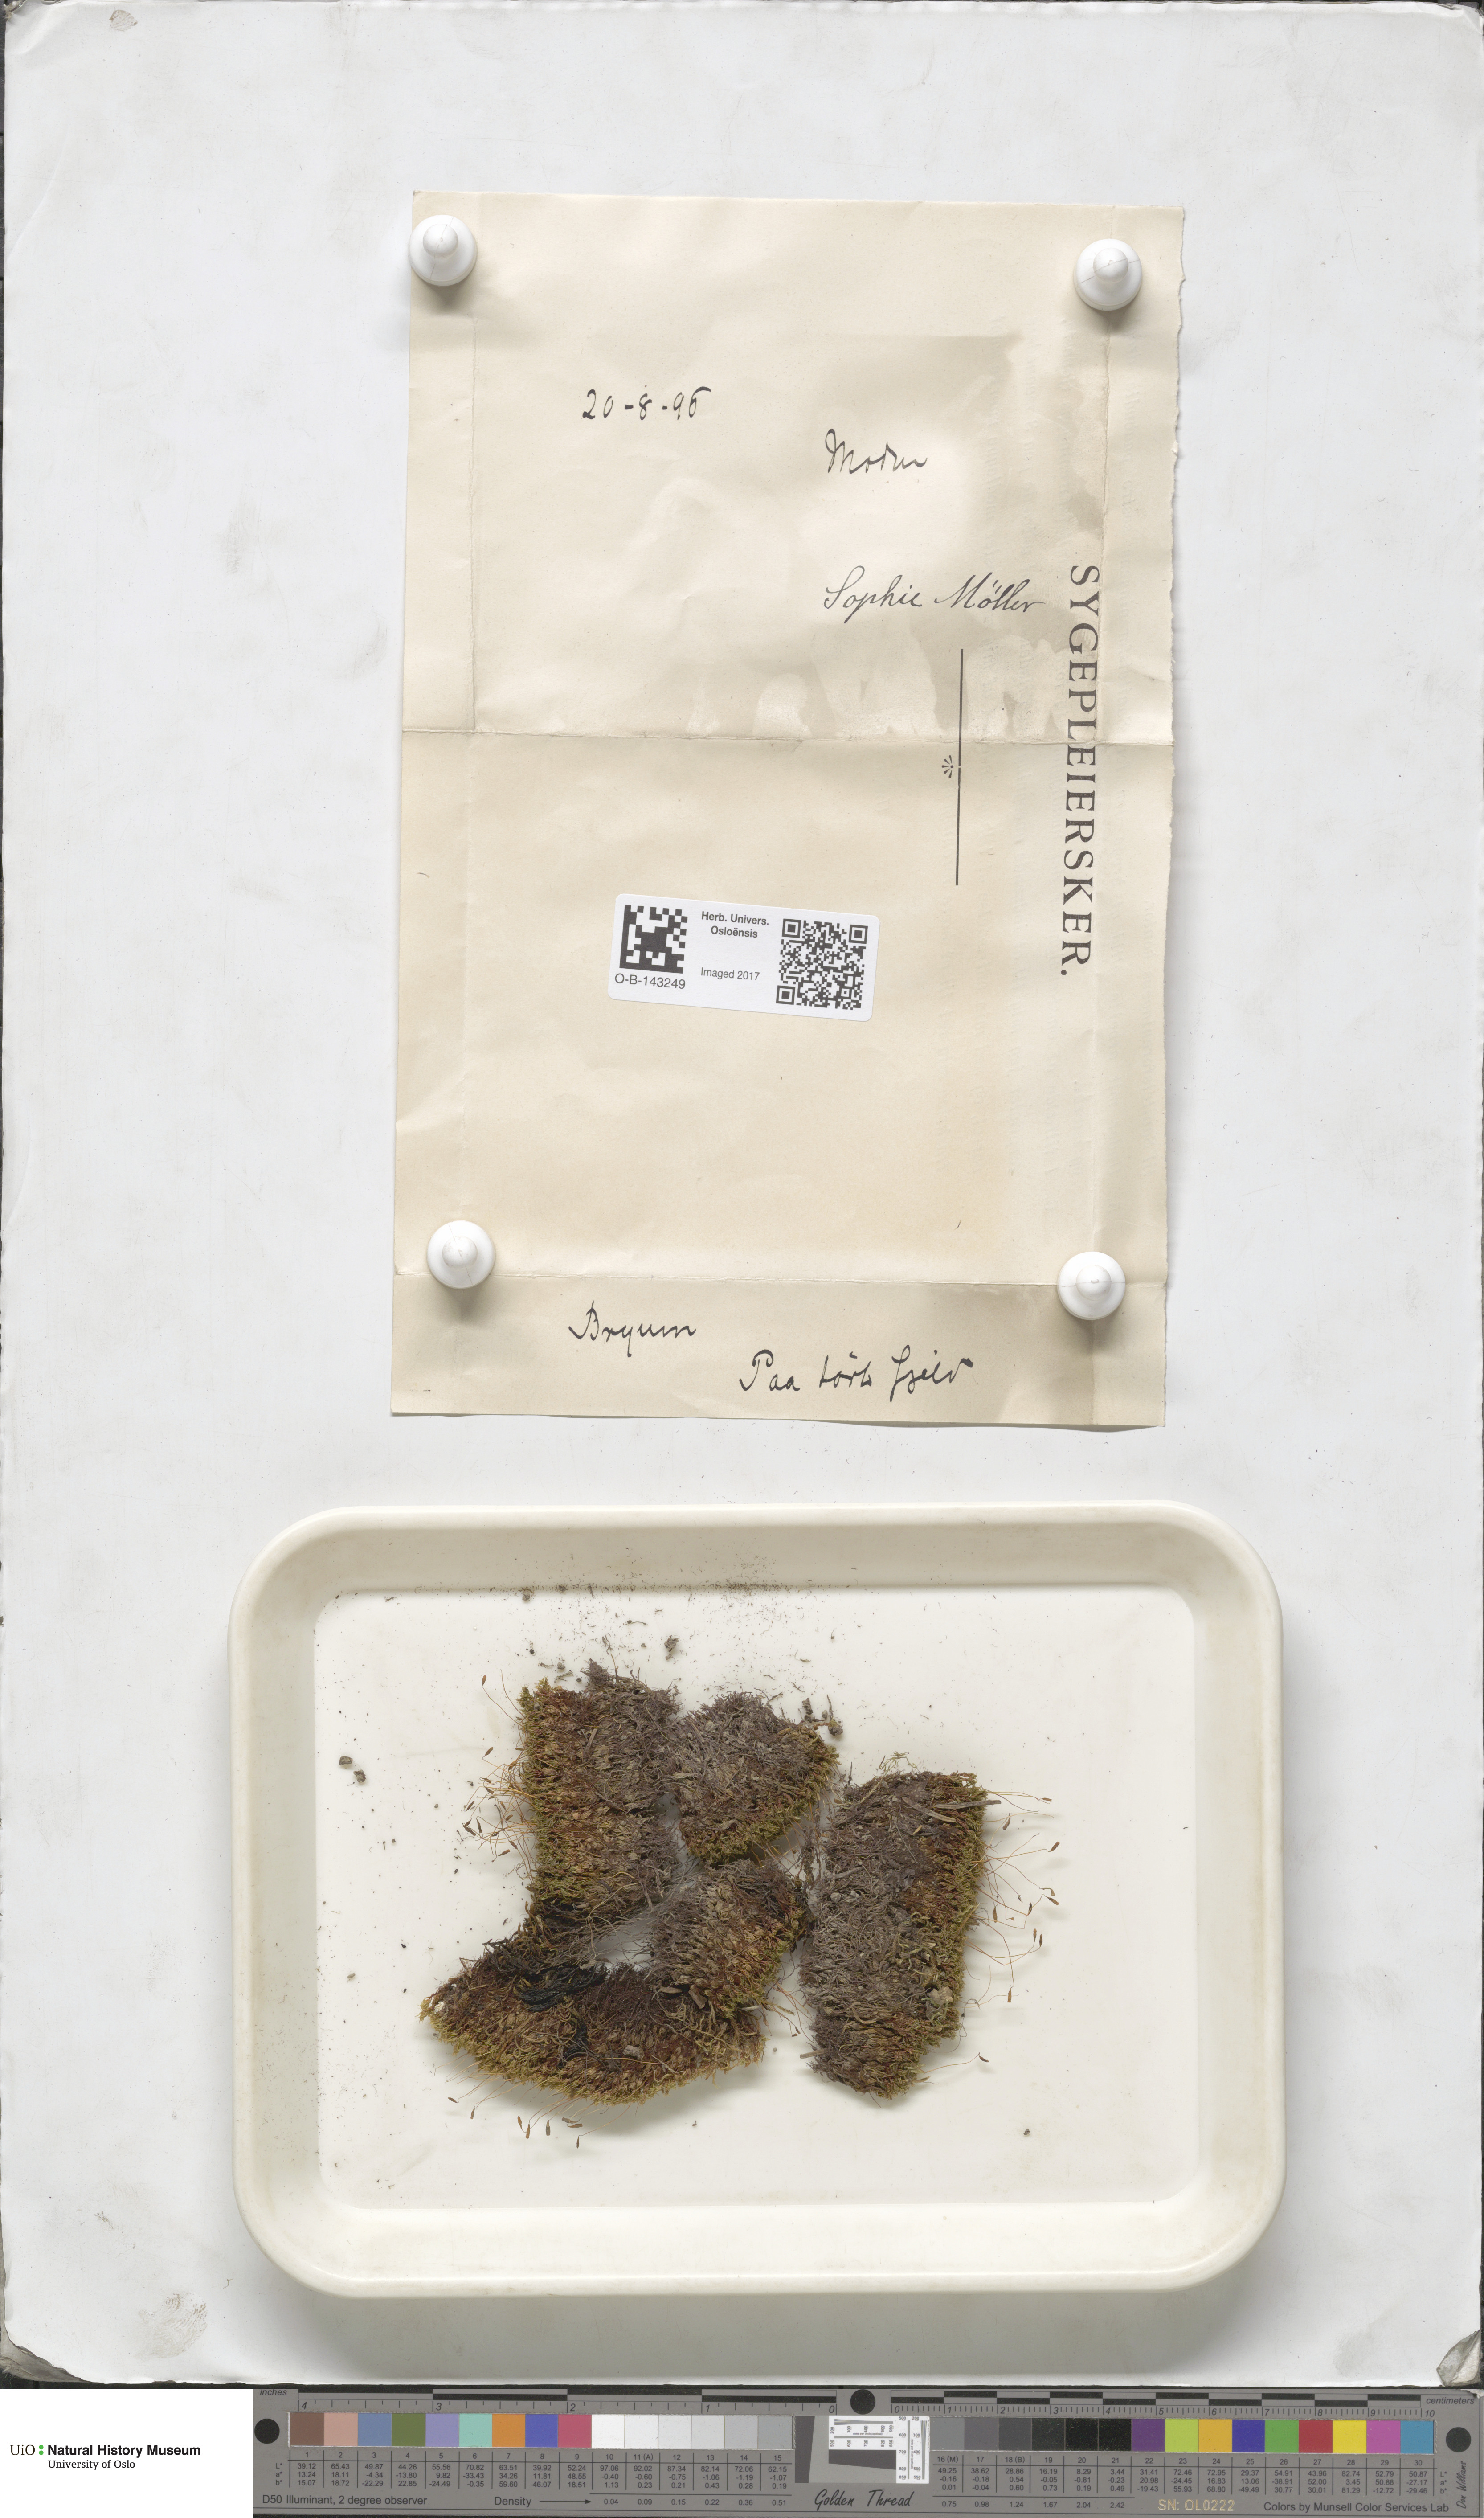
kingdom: Plantae
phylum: Bryophyta
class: Bryopsida
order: Bryales
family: Bryaceae
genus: Bryum
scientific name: Bryum
